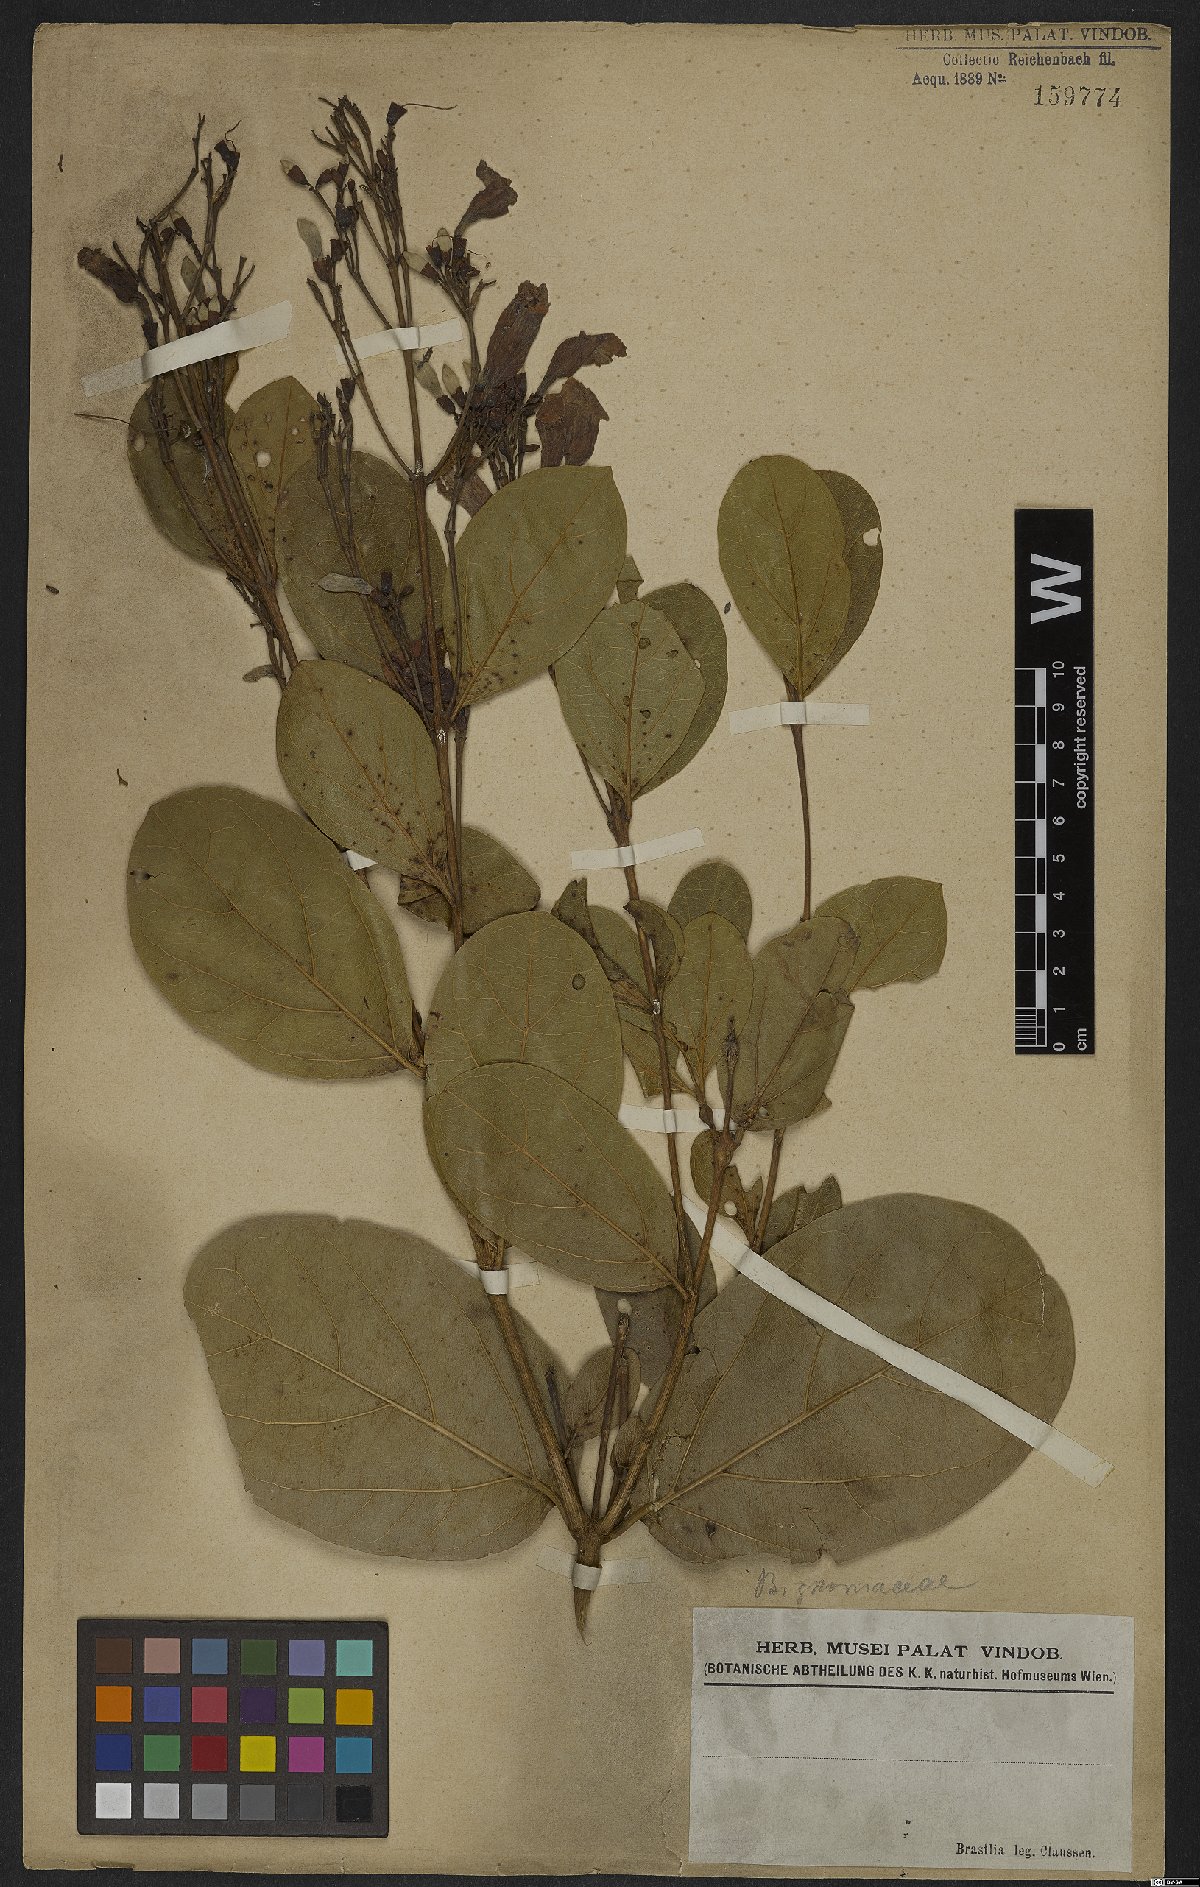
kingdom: Plantae
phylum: Tracheophyta
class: Magnoliopsida
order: Rosales
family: Rhamnaceae
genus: Arrabidaea
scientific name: Arrabidaea
